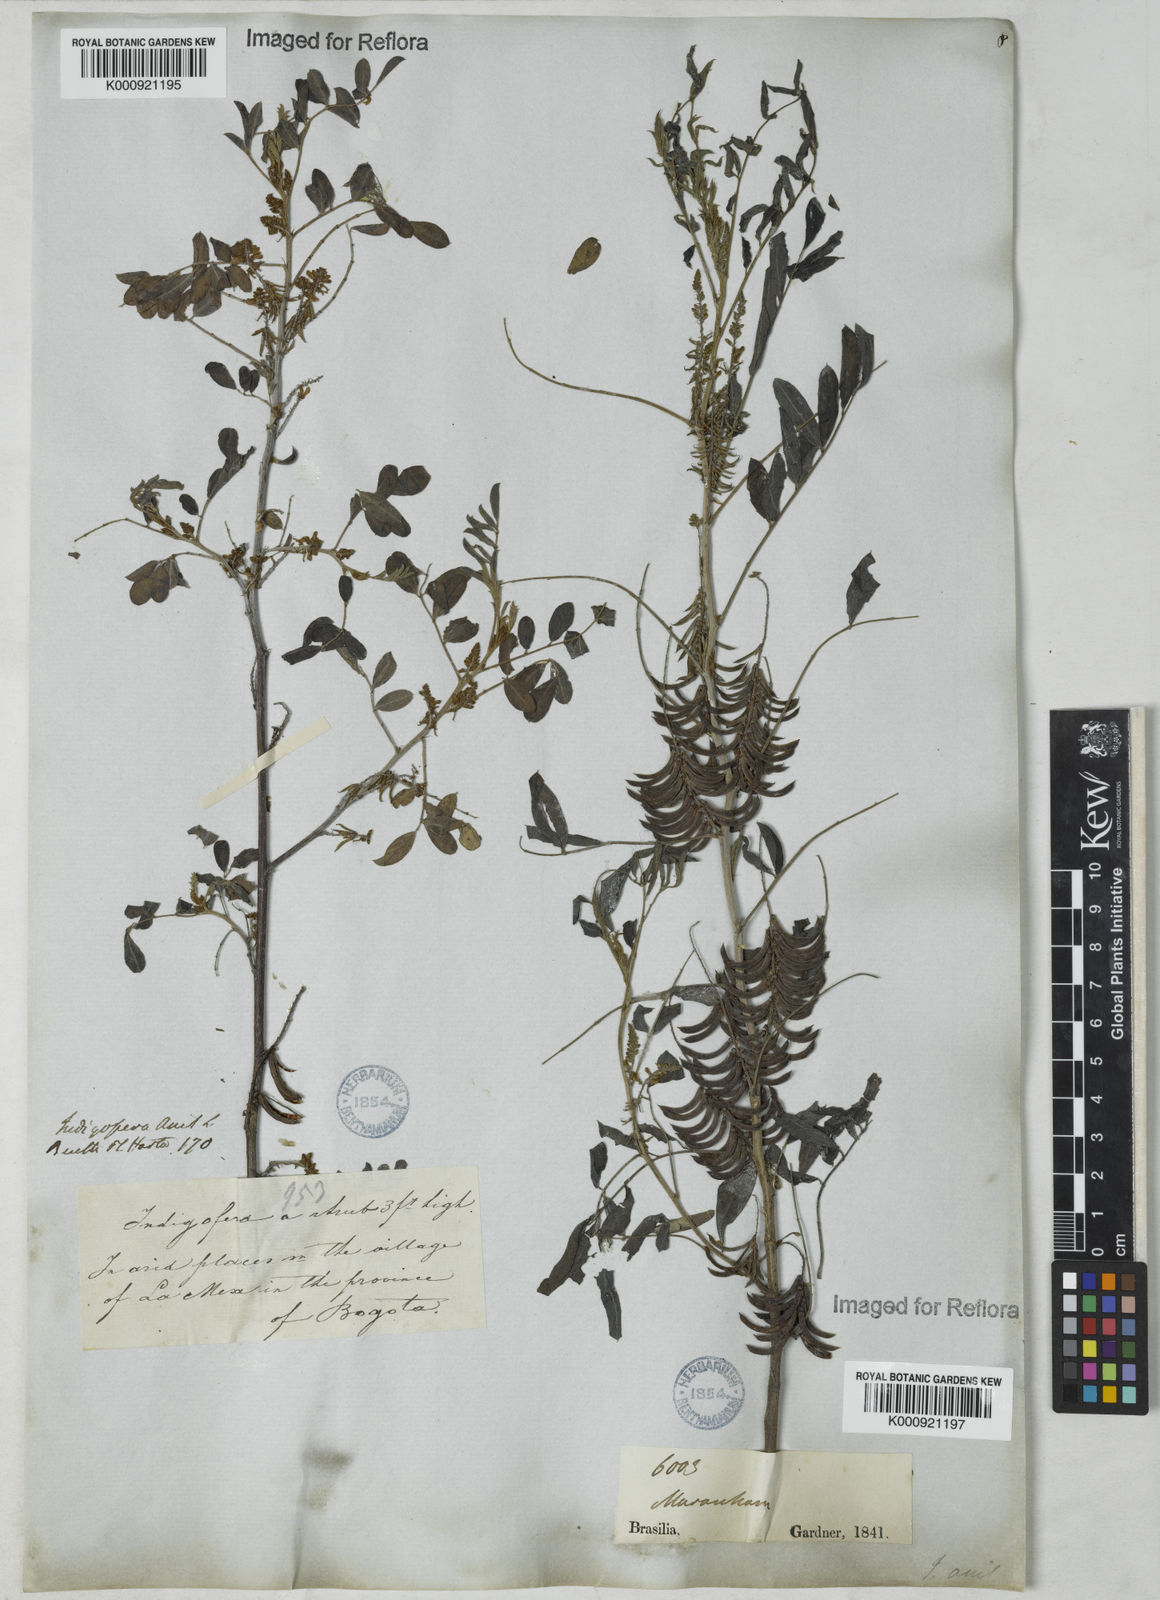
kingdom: Plantae
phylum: Tracheophyta
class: Magnoliopsida
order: Fabales
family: Fabaceae
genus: Indigofera
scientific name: Indigofera suffruticosa
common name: Anil de pasto
